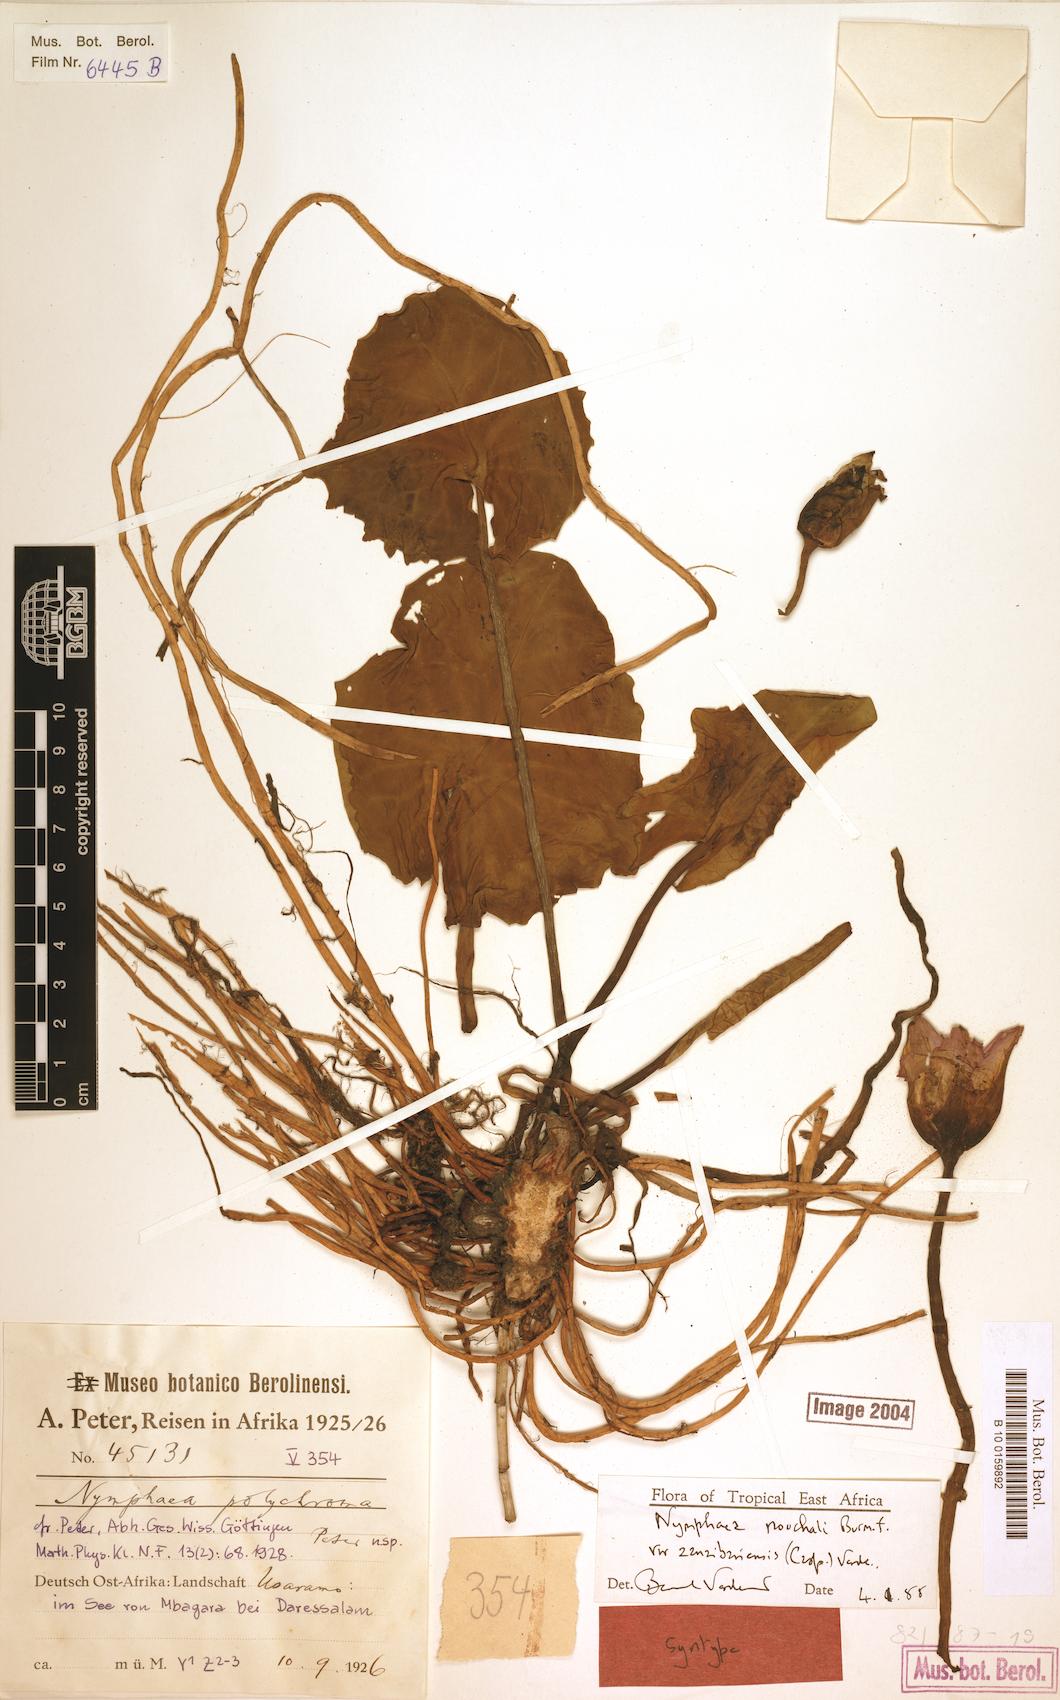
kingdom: Plantae
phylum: Tracheophyta
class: Magnoliopsida
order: Nymphaeales
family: Nymphaeaceae
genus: Nymphaea
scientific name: Nymphaea nouchali
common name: Blue lotus
